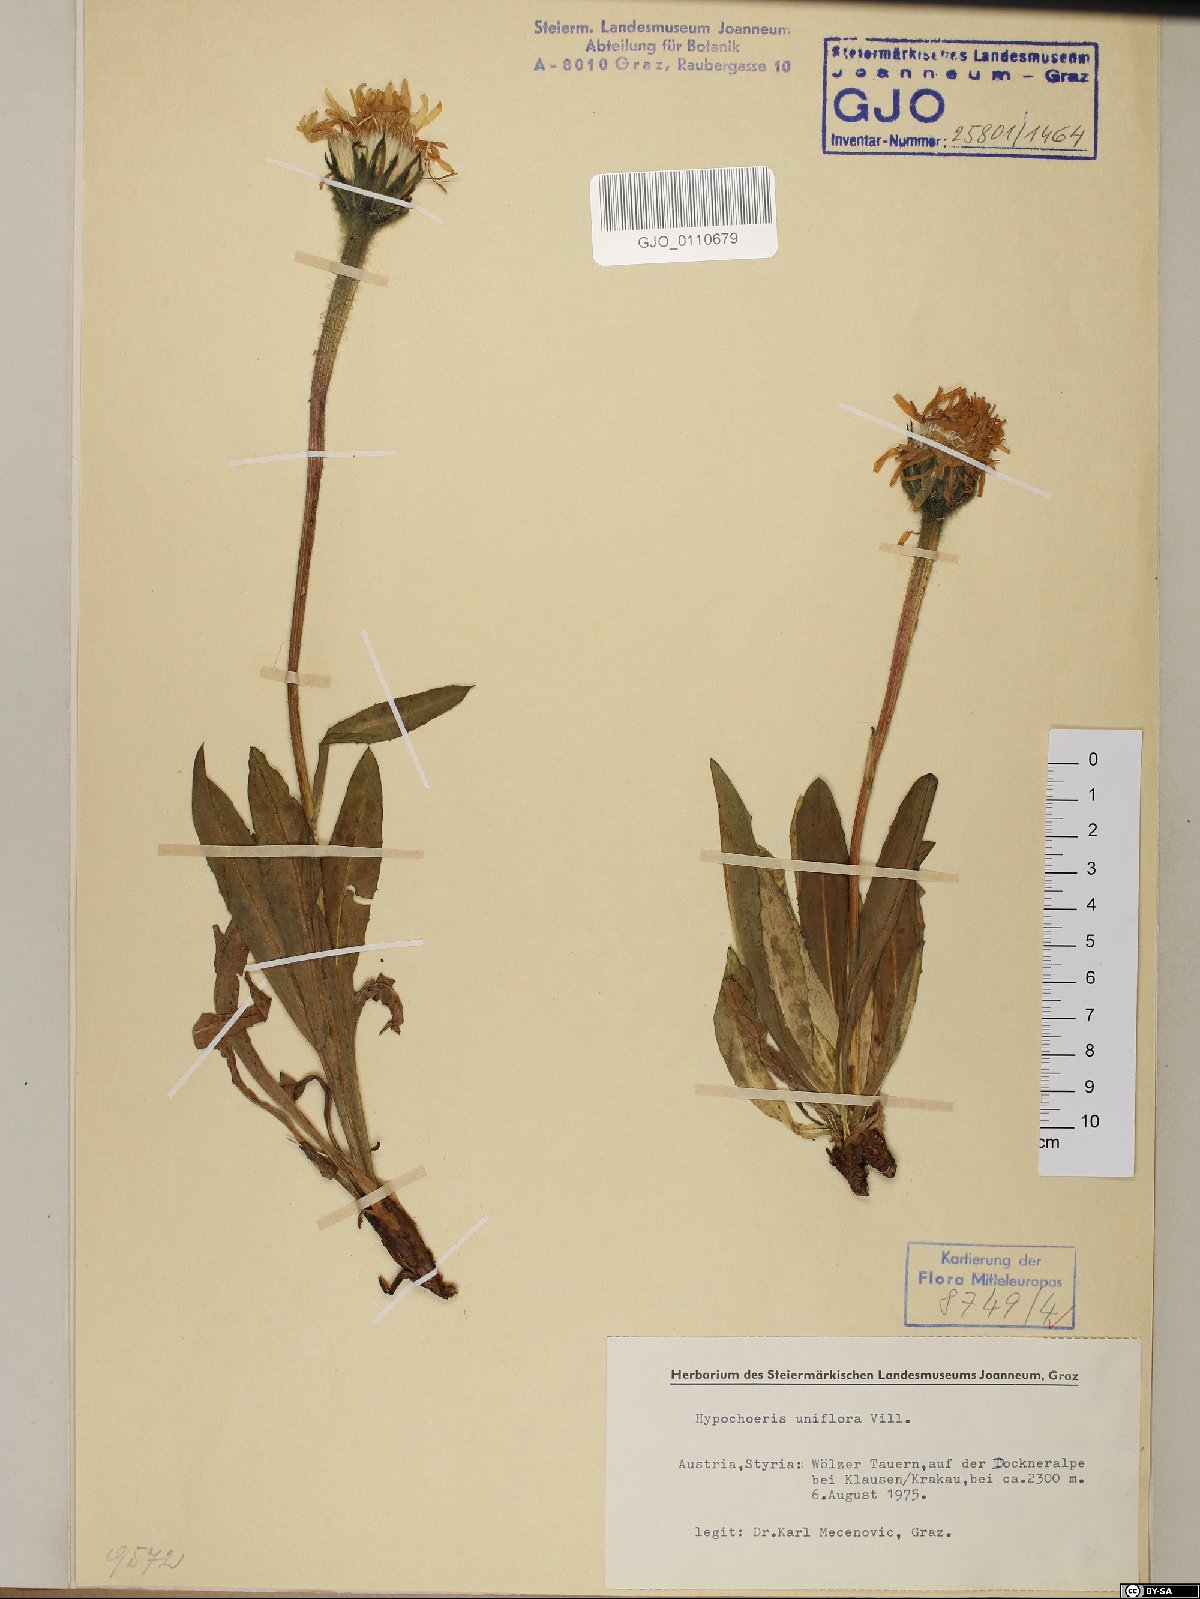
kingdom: Plantae
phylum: Tracheophyta
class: Magnoliopsida
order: Asterales
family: Asteraceae
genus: Trommsdorffia
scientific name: Trommsdorffia uniflora
